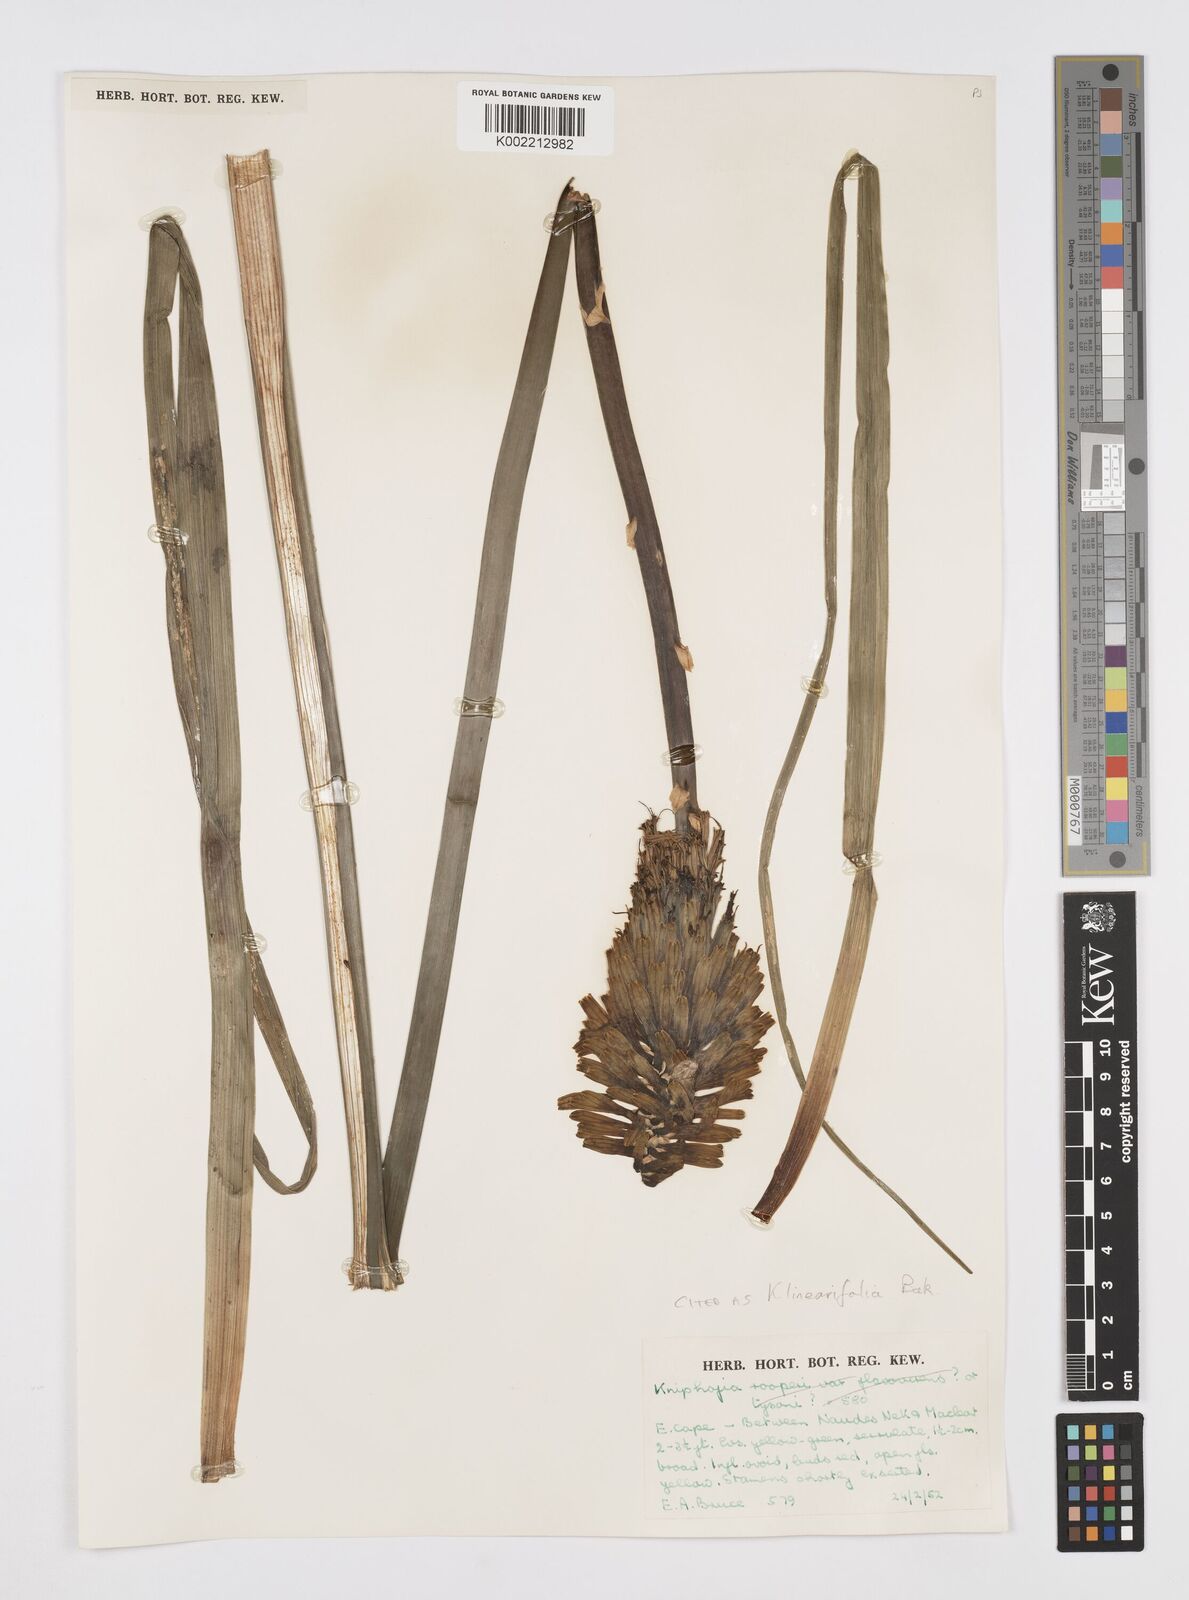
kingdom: Plantae
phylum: Tracheophyta
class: Liliopsida
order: Asparagales
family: Asphodelaceae
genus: Kniphofia
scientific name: Kniphofia linearifolia
